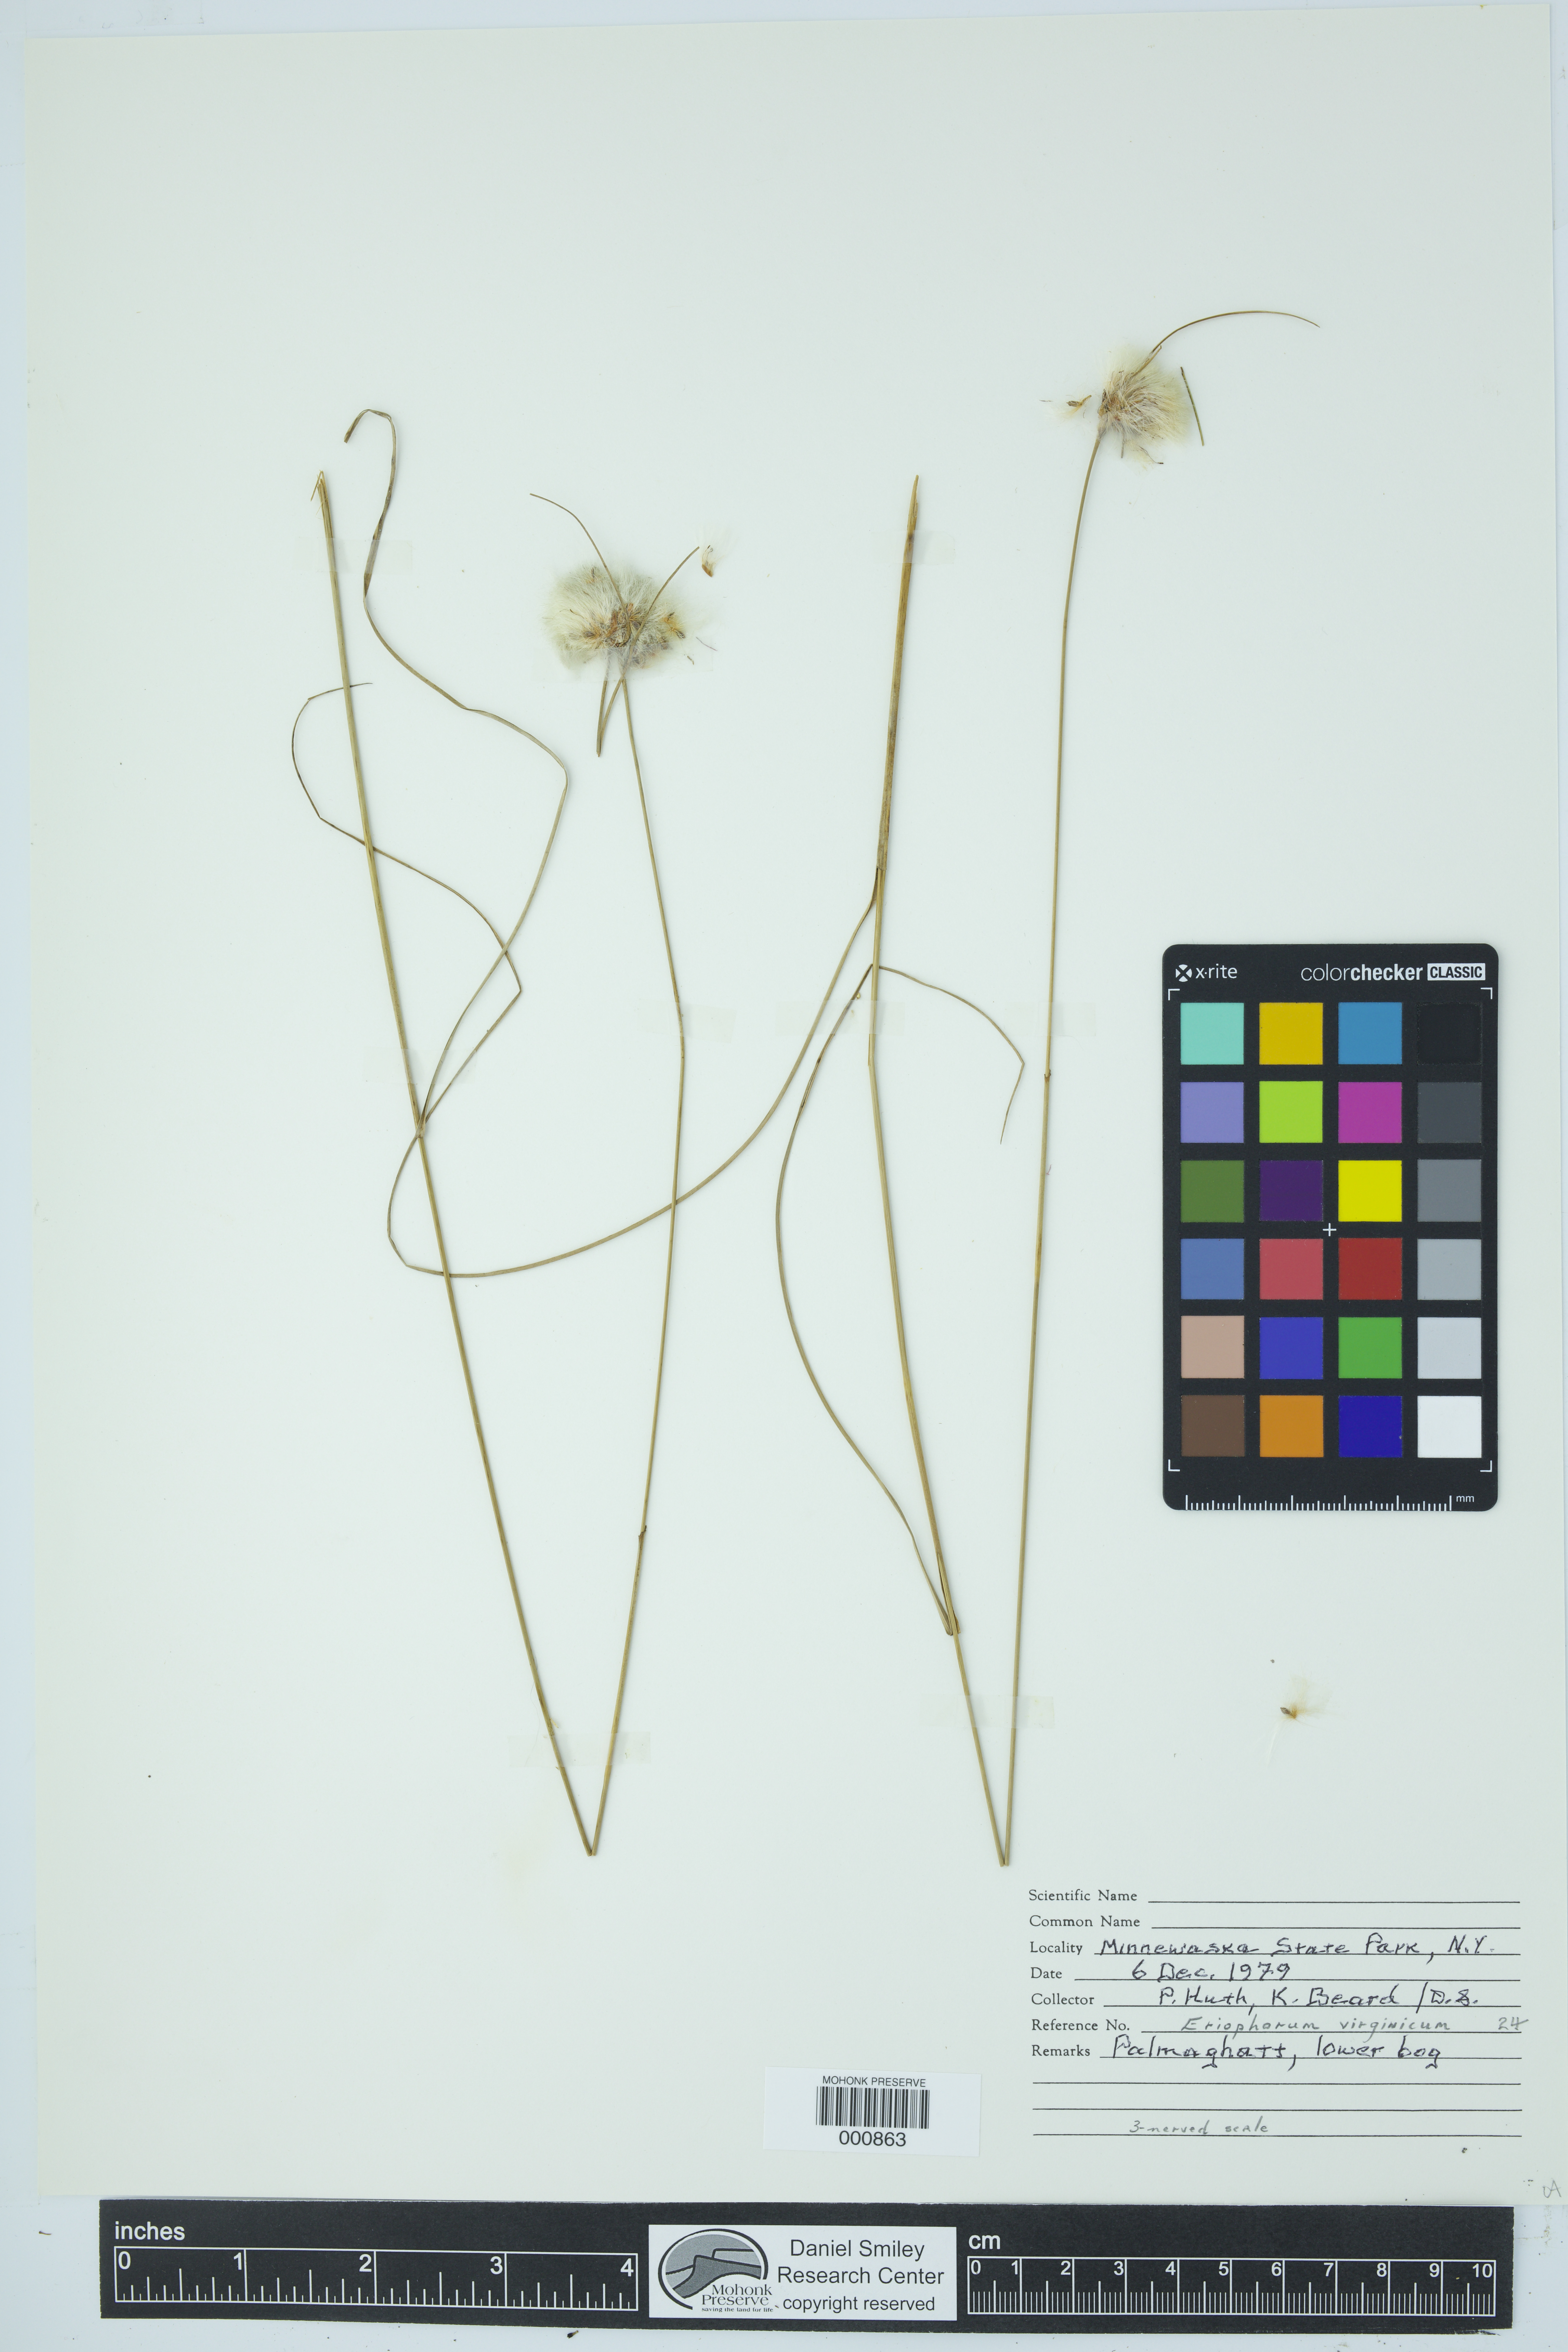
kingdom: Plantae
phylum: Tracheophyta
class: Liliopsida
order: Poales
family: Cyperaceae
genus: Eriophorum
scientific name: Eriophorum virginicum
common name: Tawny cottongrass
